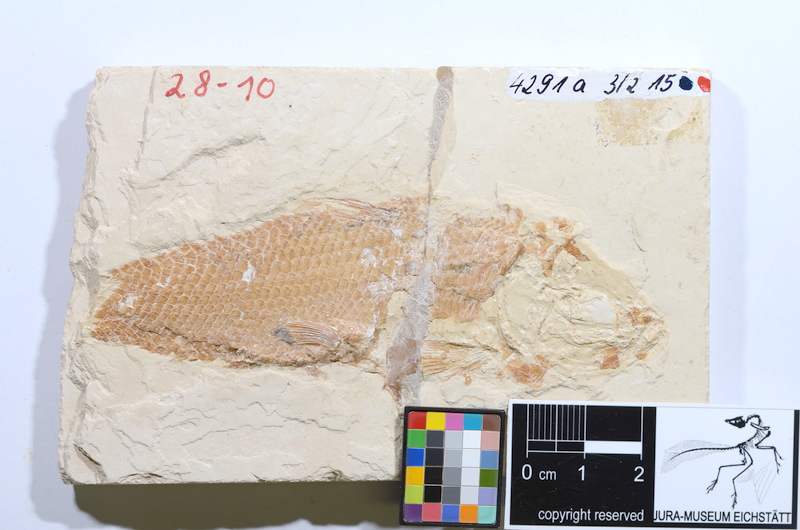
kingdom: Animalia
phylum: Chordata
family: Ankylophoridae
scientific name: Ankylophoridae
